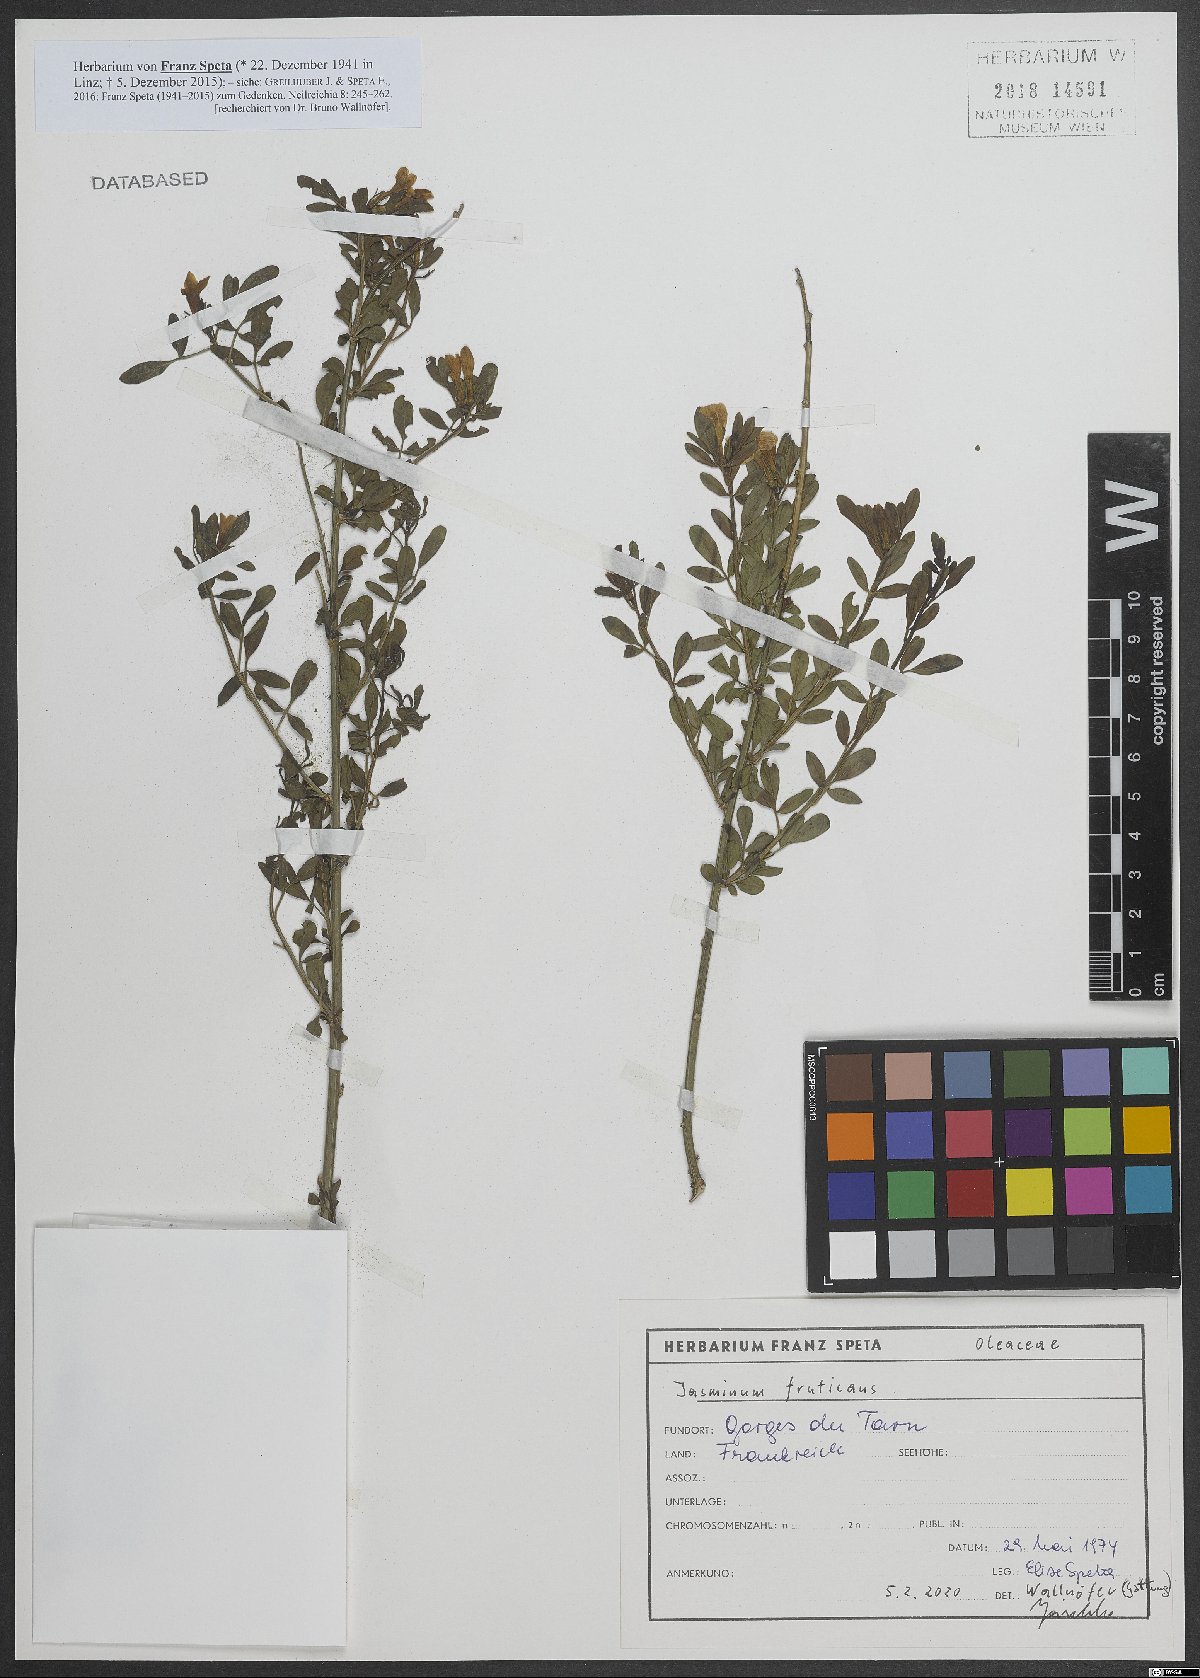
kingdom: Plantae
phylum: Tracheophyta
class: Magnoliopsida
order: Lamiales
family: Oleaceae
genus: Chrysojasminum
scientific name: Chrysojasminum fruticans
